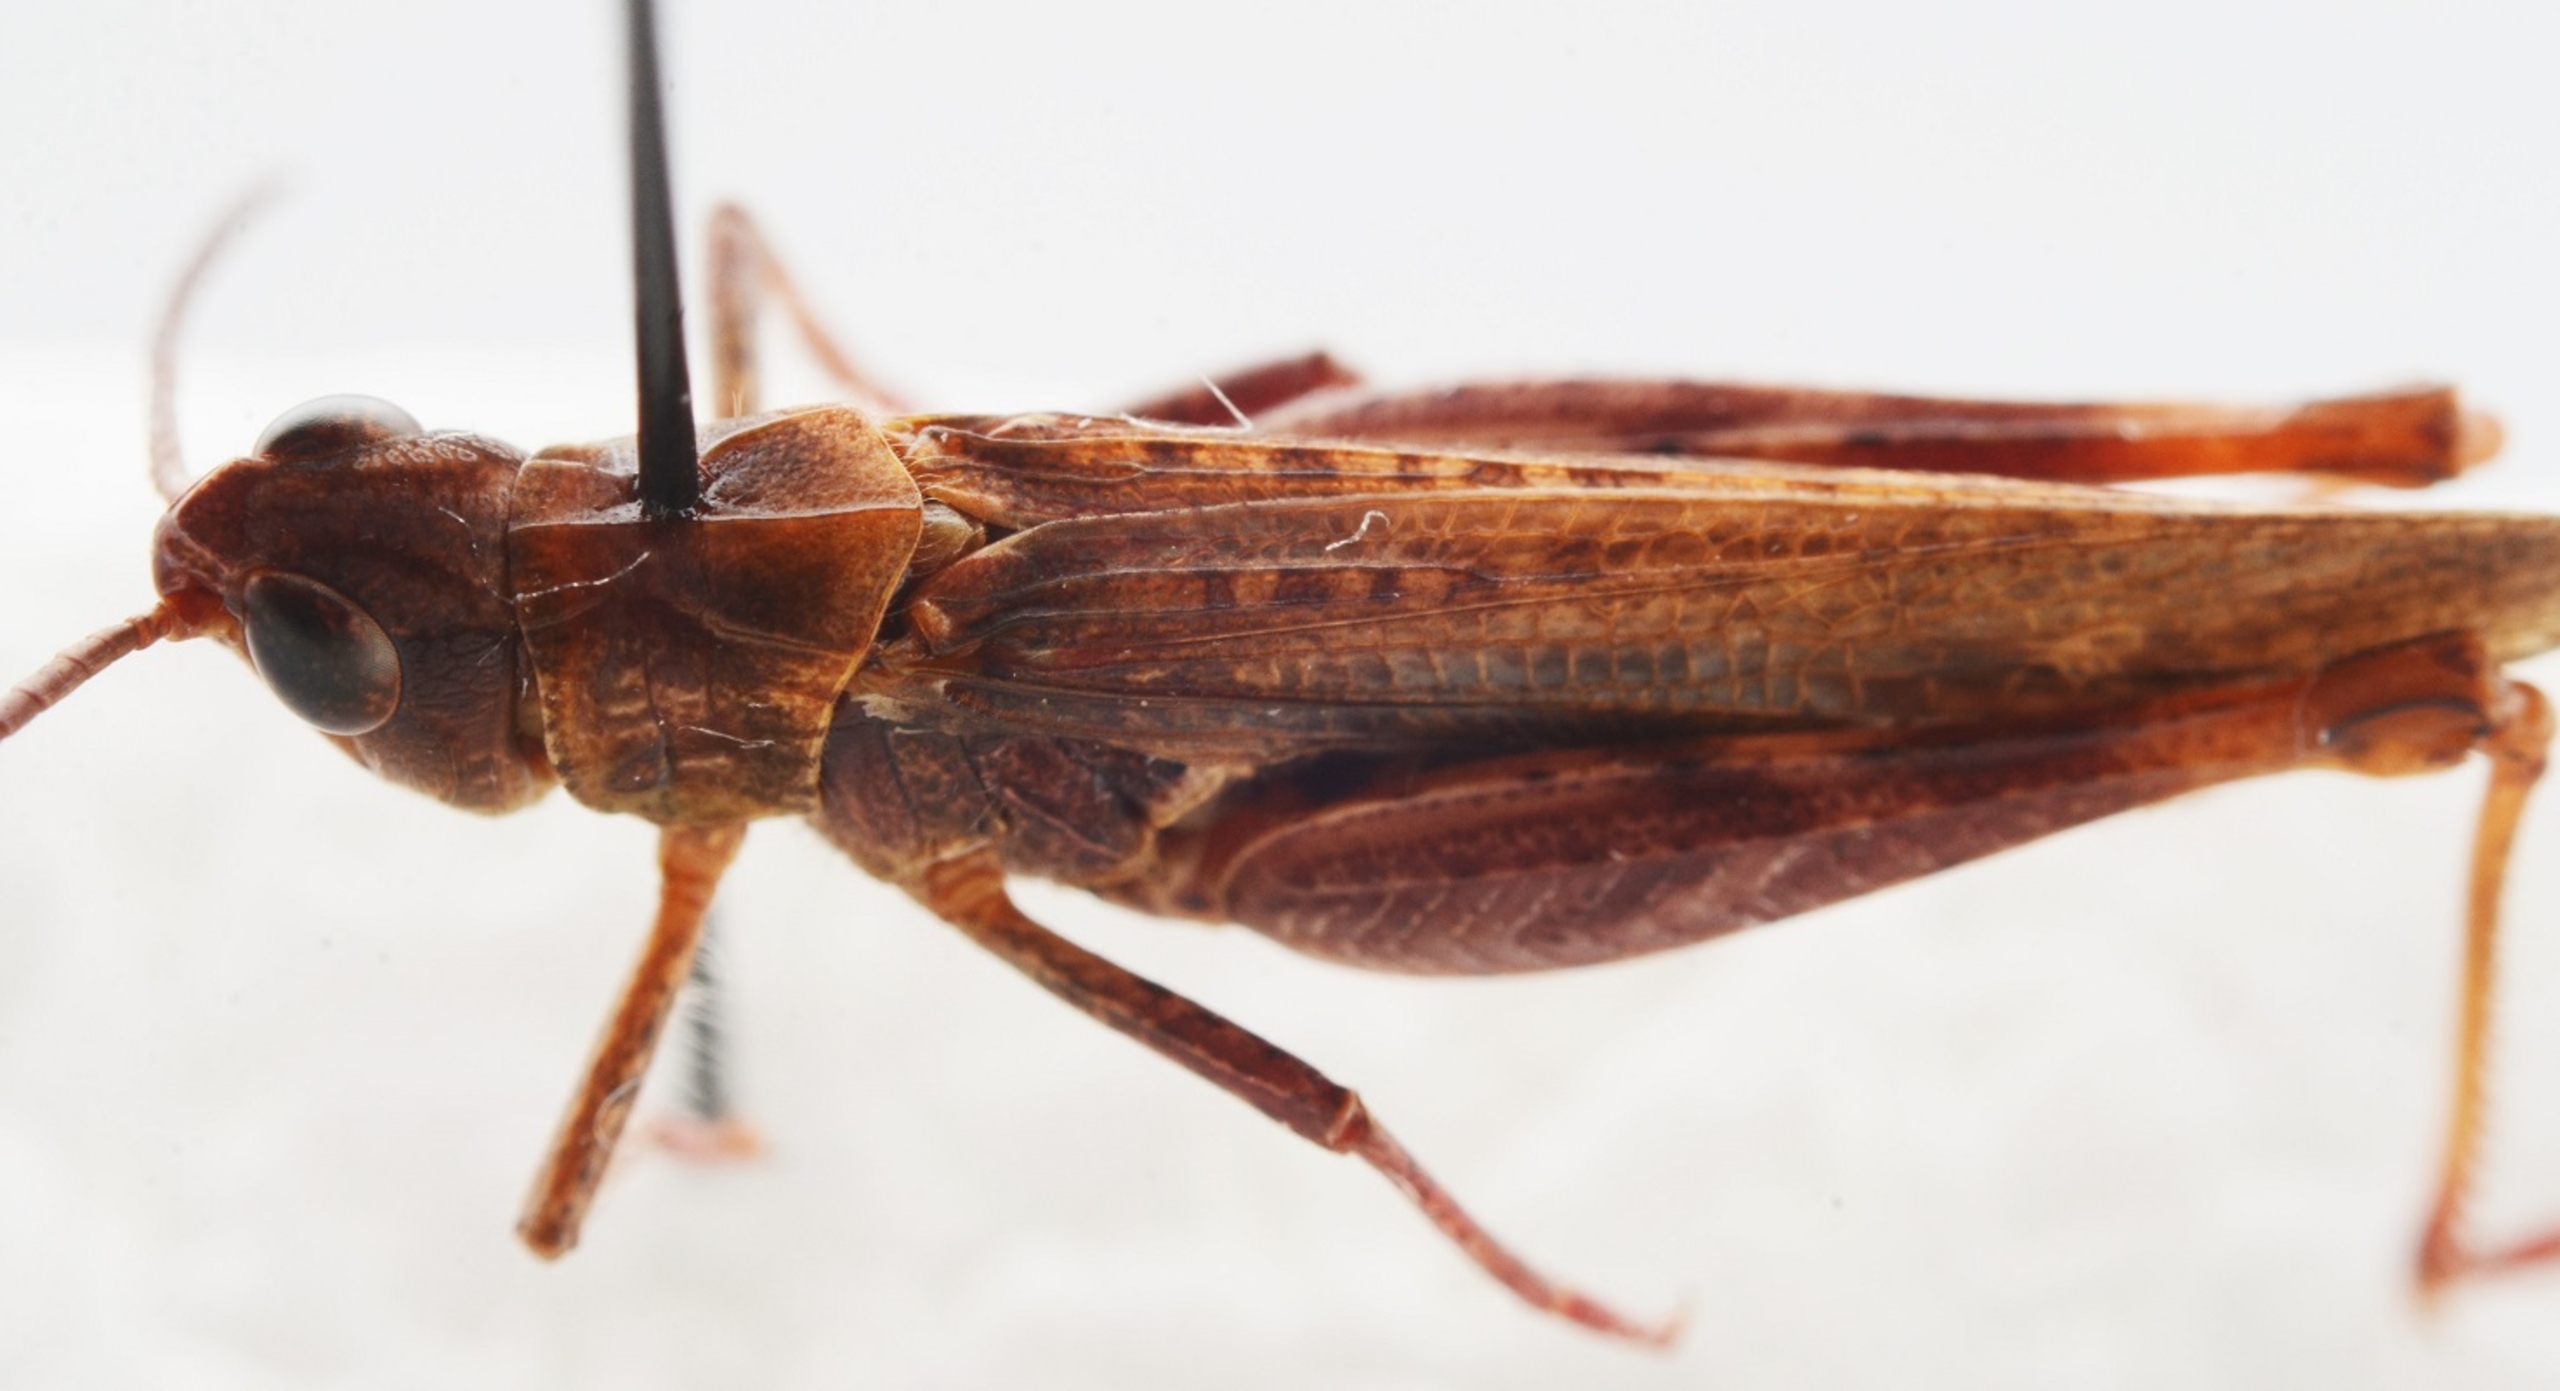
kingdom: Animalia
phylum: Arthropoda
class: Insecta
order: Orthoptera
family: Acrididae
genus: Chorthippus
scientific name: Chorthippus biguttulus
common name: Syngende markgræshoppe
